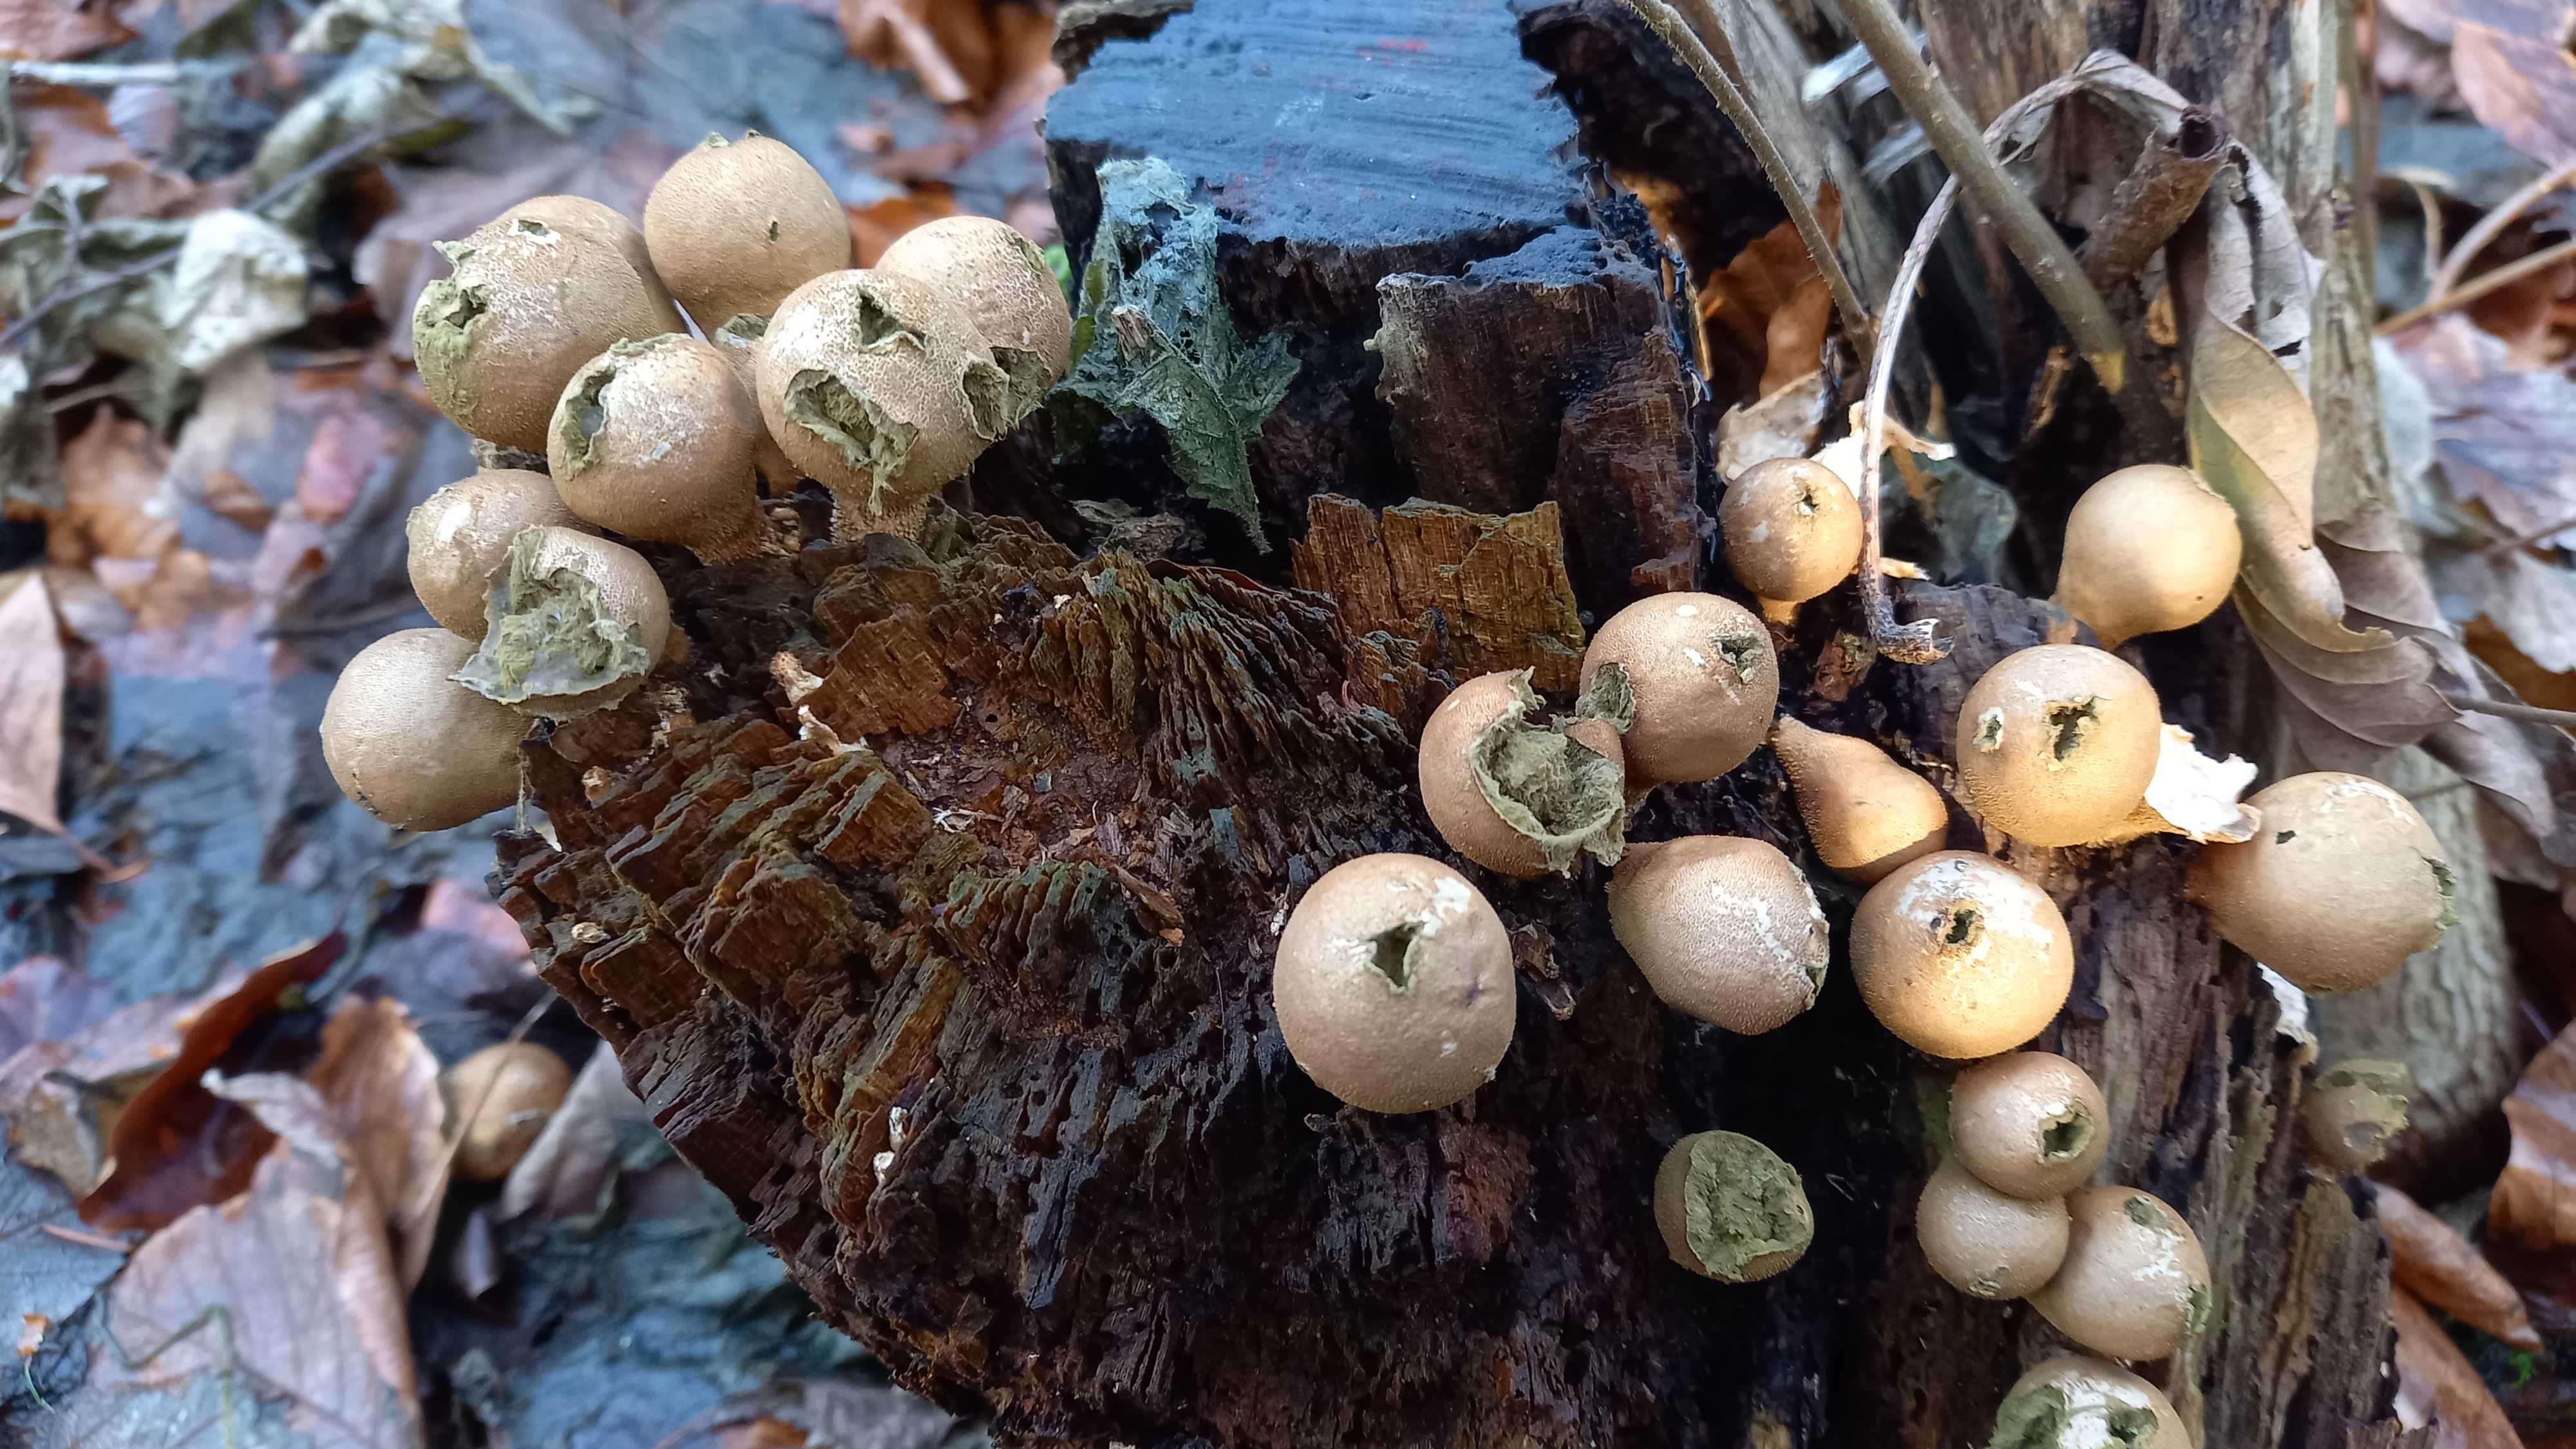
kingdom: Fungi
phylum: Basidiomycota
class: Agaricomycetes
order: Agaricales
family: Lycoperdaceae
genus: Apioperdon
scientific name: Apioperdon pyriforme
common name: pære-støvbold
